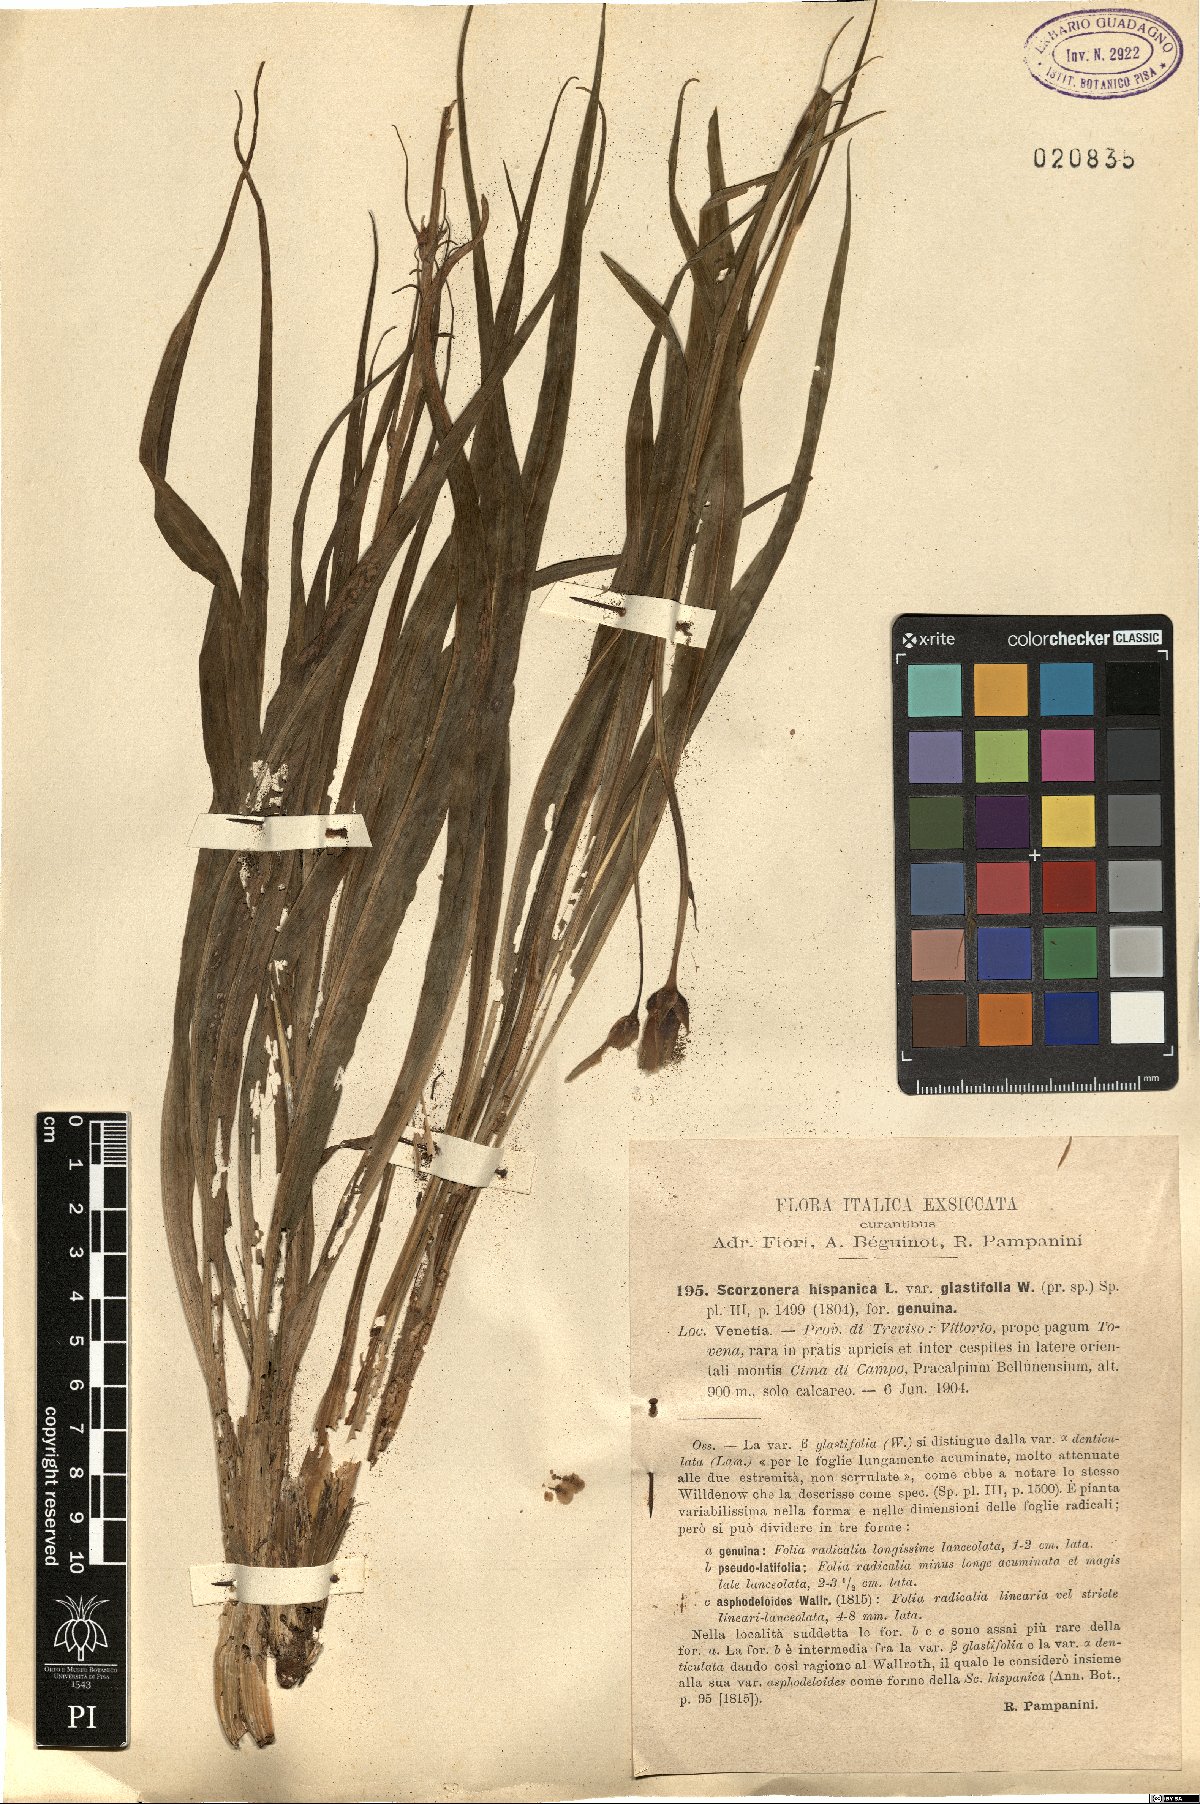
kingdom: Plantae
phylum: Tracheophyta
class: Magnoliopsida
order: Asterales
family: Asteraceae
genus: Pseudopodospermum
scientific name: Pseudopodospermum hispanicum
